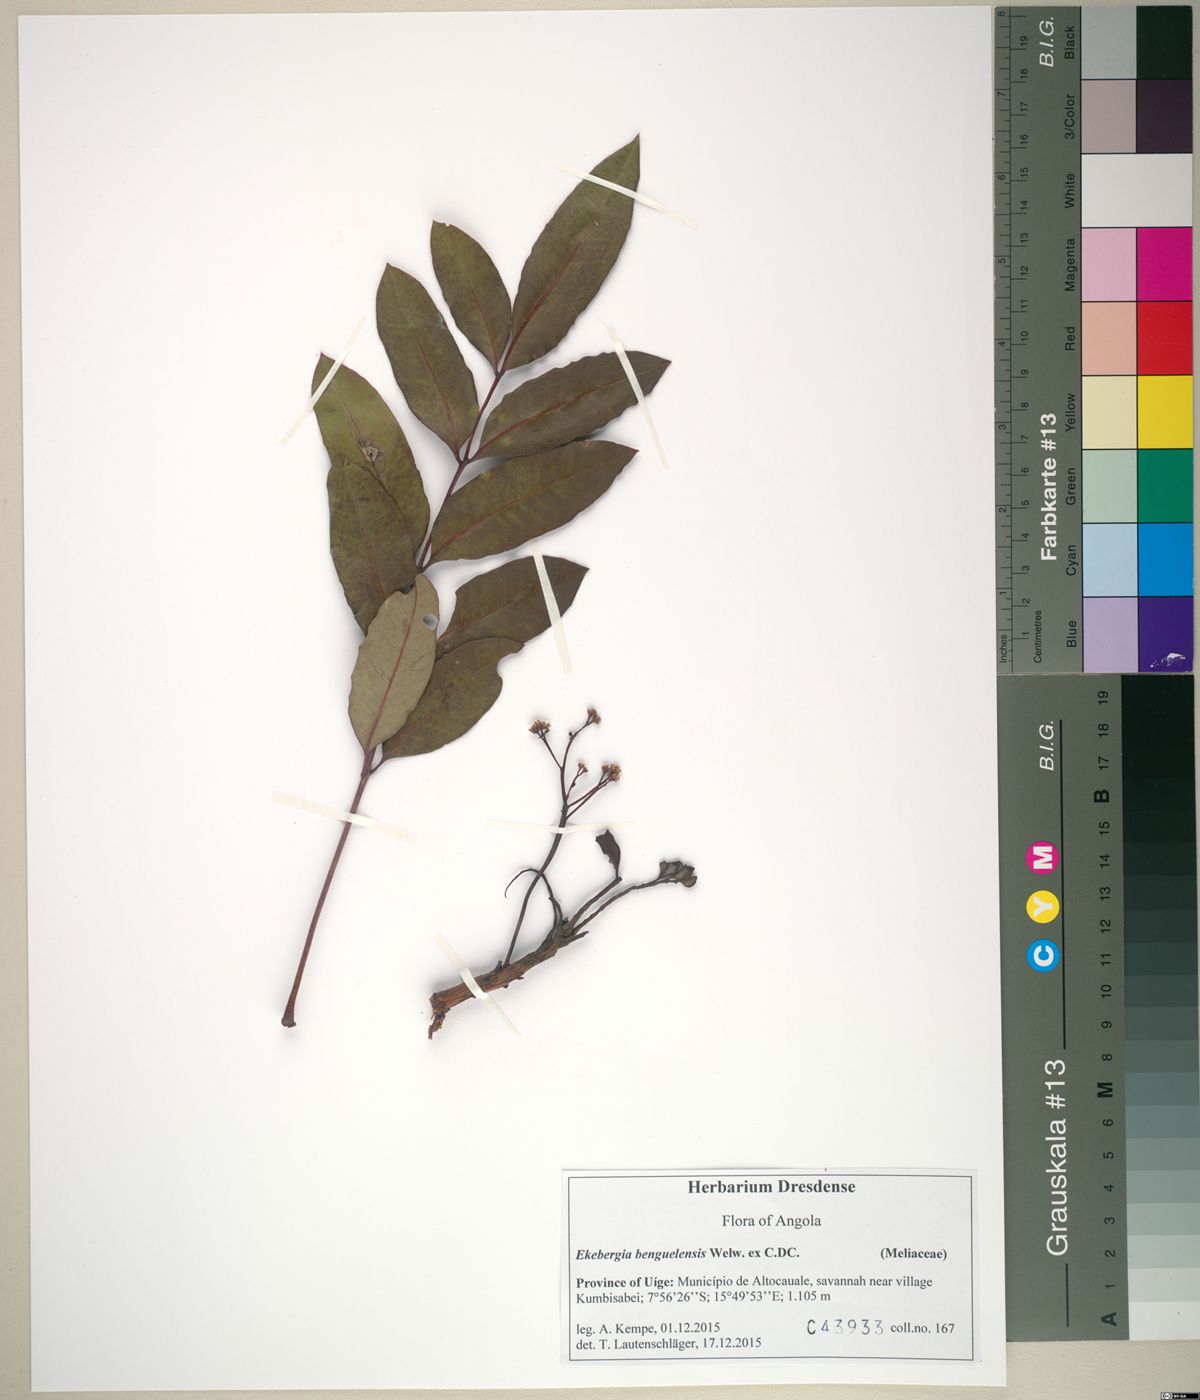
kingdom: Plantae
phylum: Tracheophyta
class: Magnoliopsida
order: Sapindales
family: Meliaceae
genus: Ekebergia
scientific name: Ekebergia benguelensis
